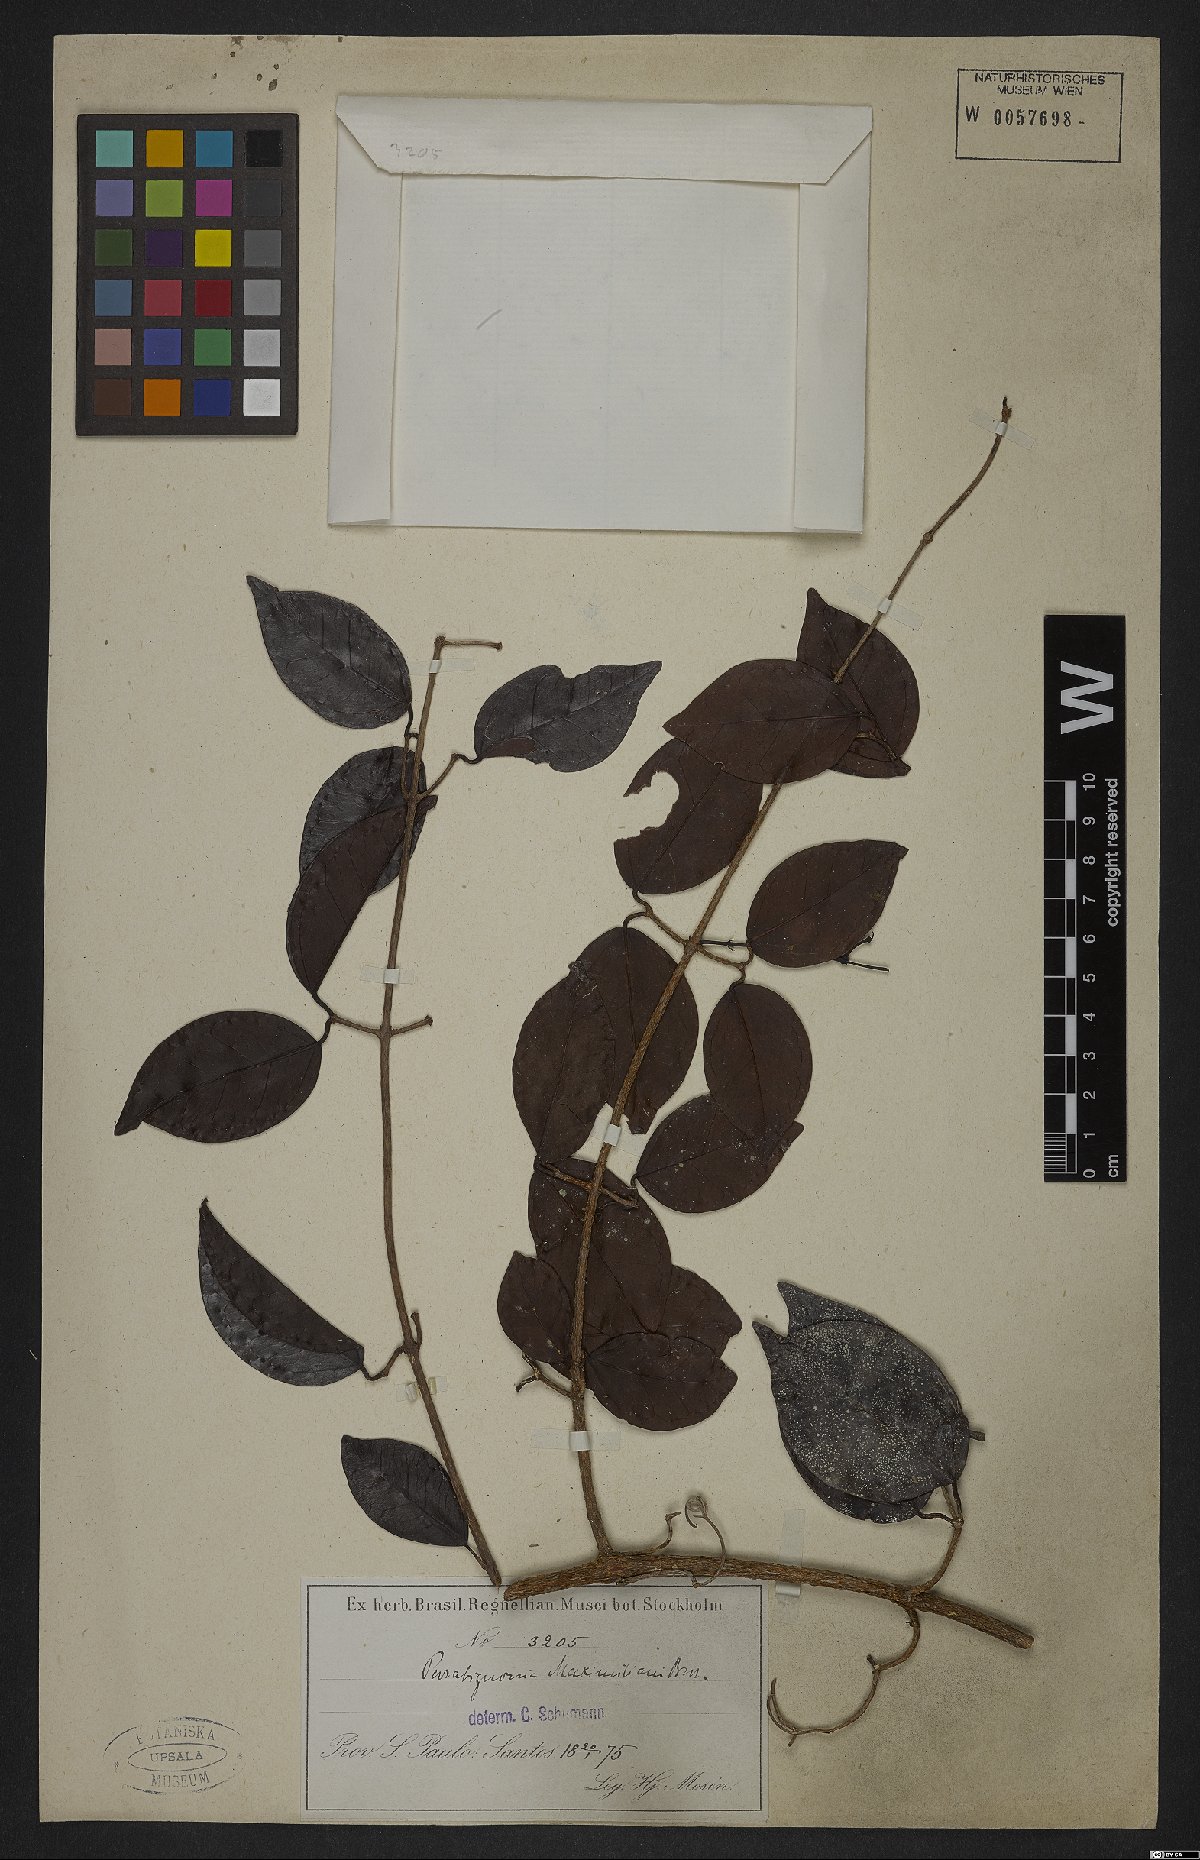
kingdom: Plantae
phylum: Tracheophyta
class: Magnoliopsida
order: Lamiales
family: Bignoniaceae
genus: Dolichandra
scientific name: Dolichandra unguiculata
